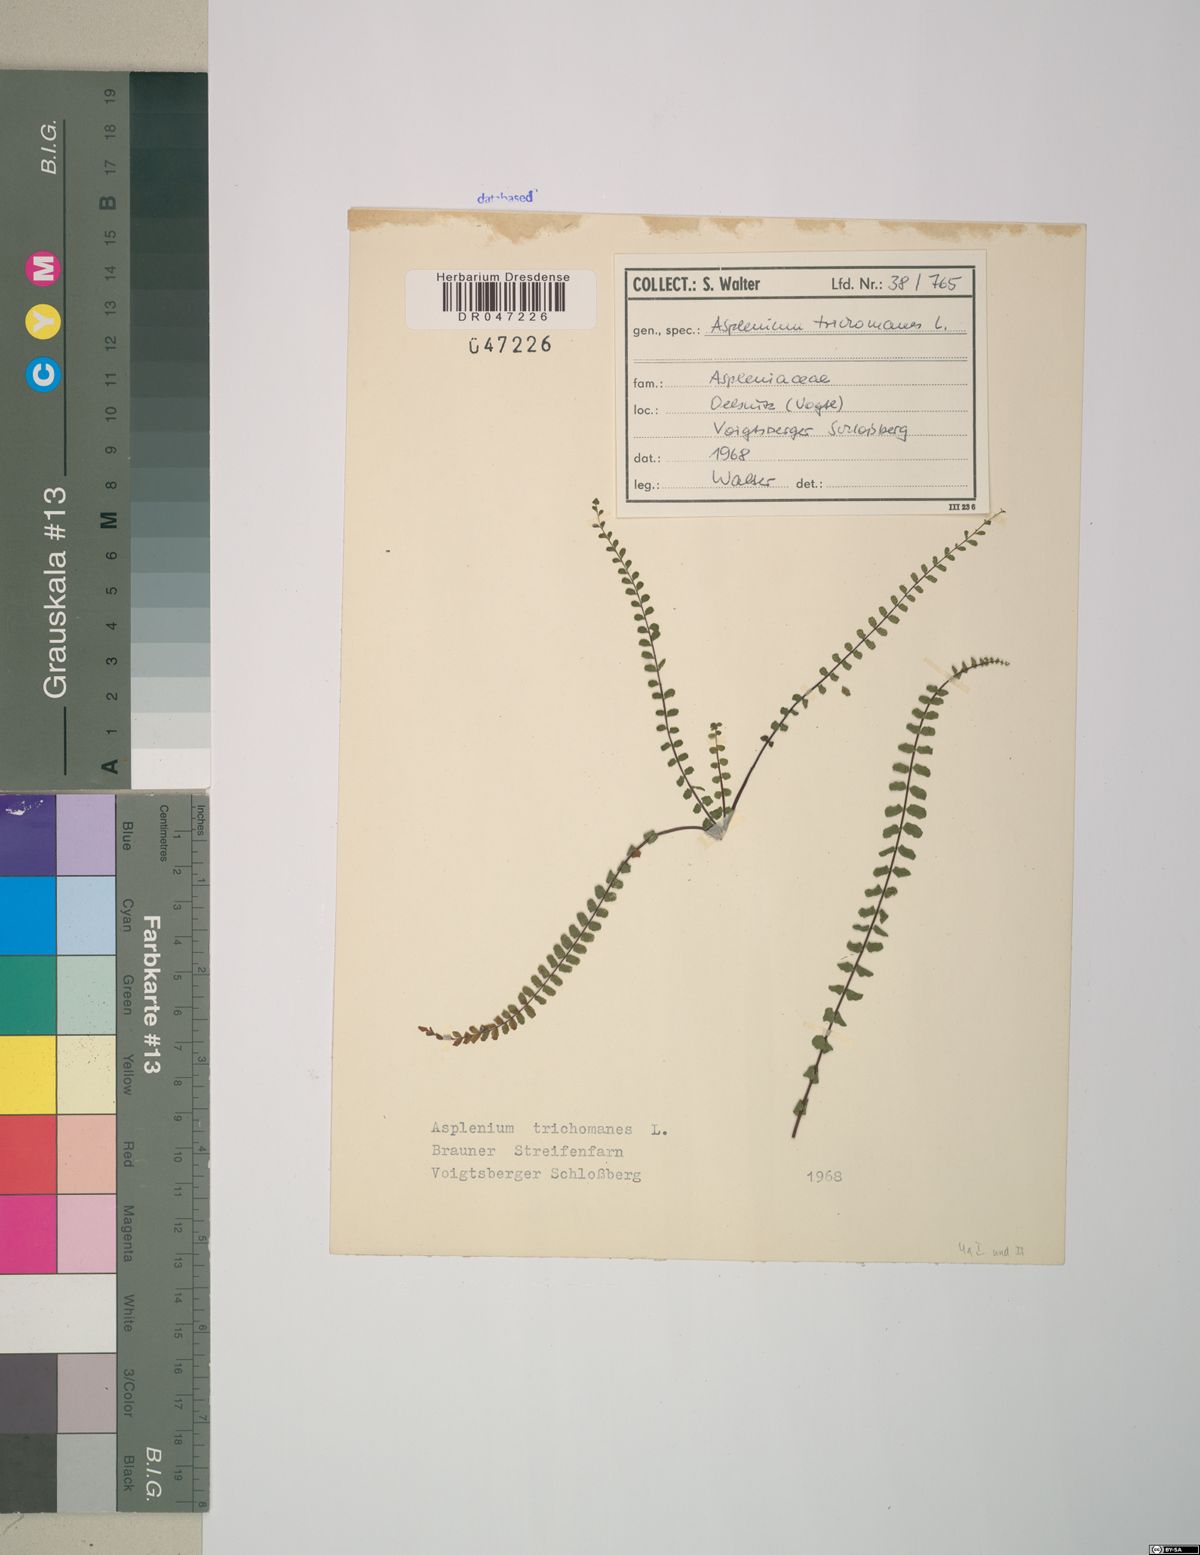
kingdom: Plantae
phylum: Tracheophyta
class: Polypodiopsida
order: Polypodiales
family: Aspleniaceae
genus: Asplenium
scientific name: Asplenium trichomanes
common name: Maidenhair spleenwort
